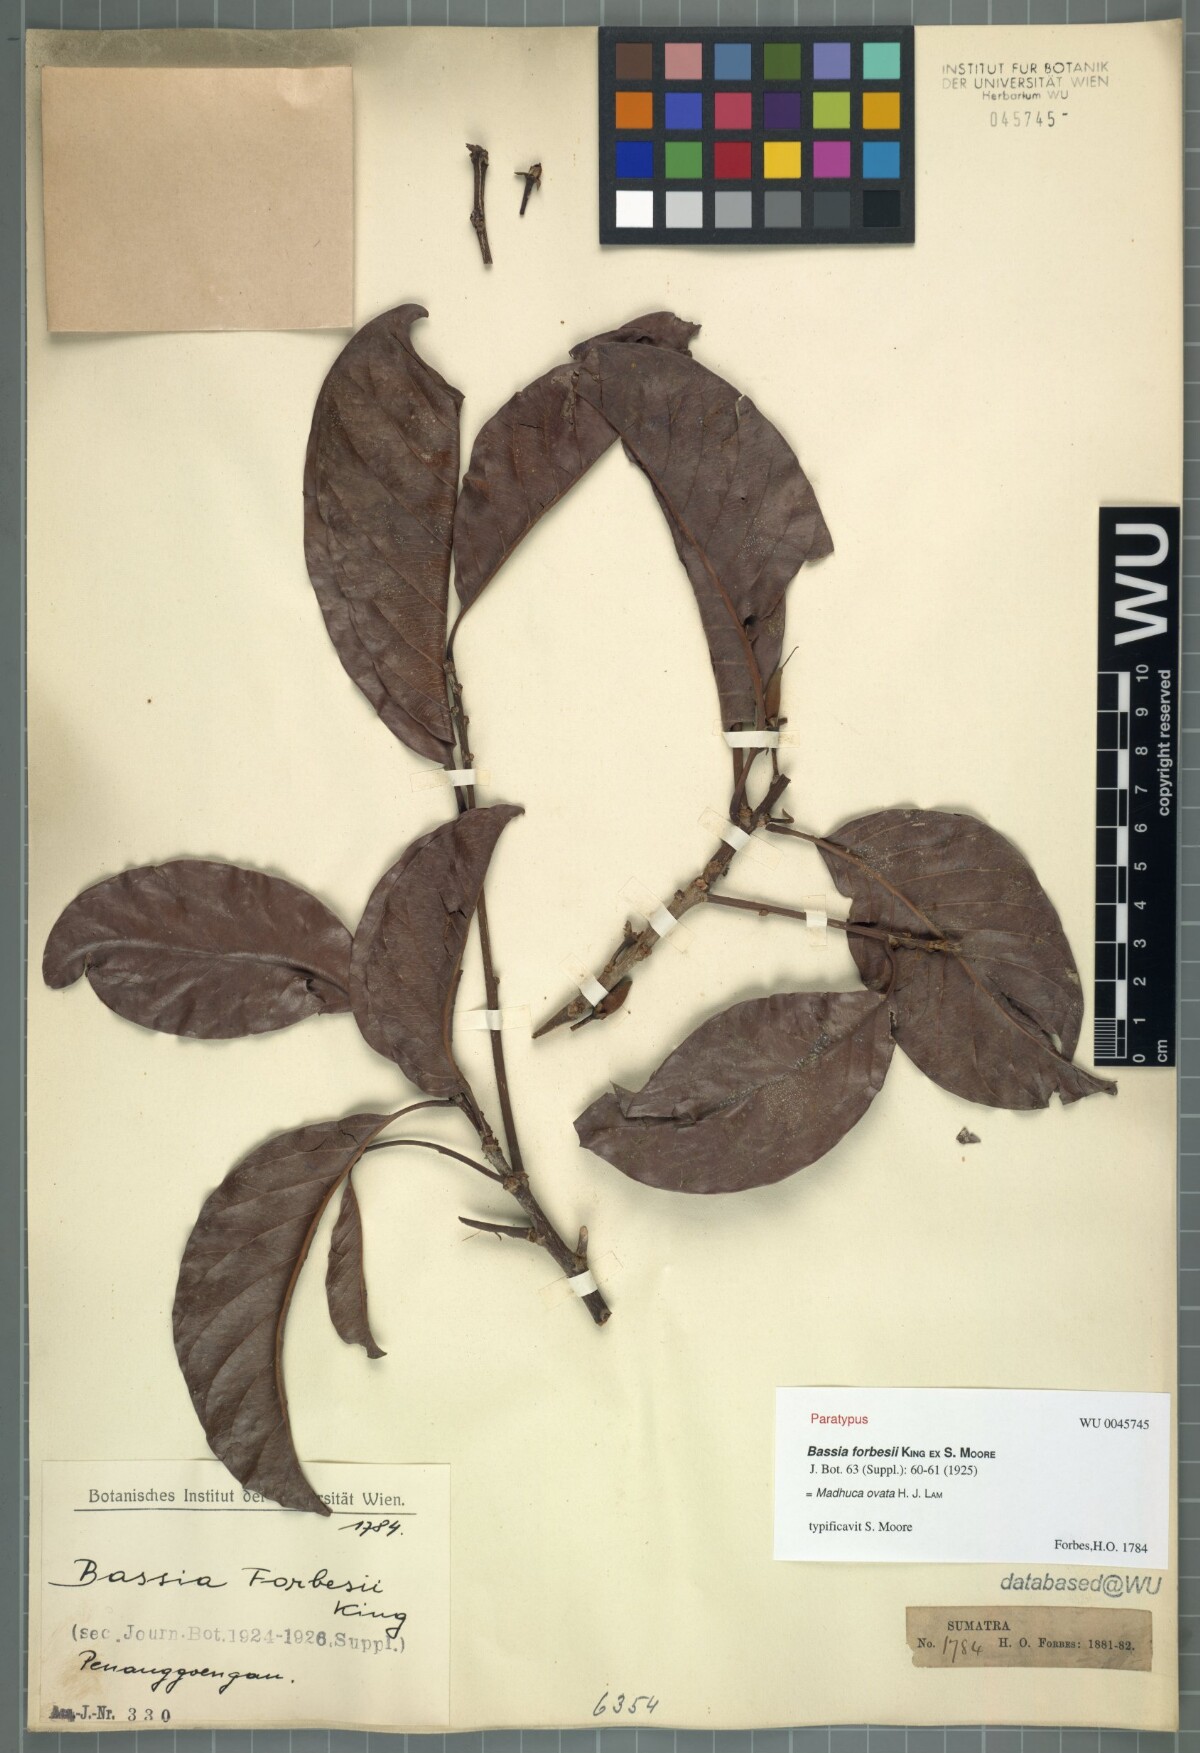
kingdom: Plantae
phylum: Tracheophyta
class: Magnoliopsida
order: Ericales
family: Sapotaceae
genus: Madhuca
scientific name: Madhuca ovata
